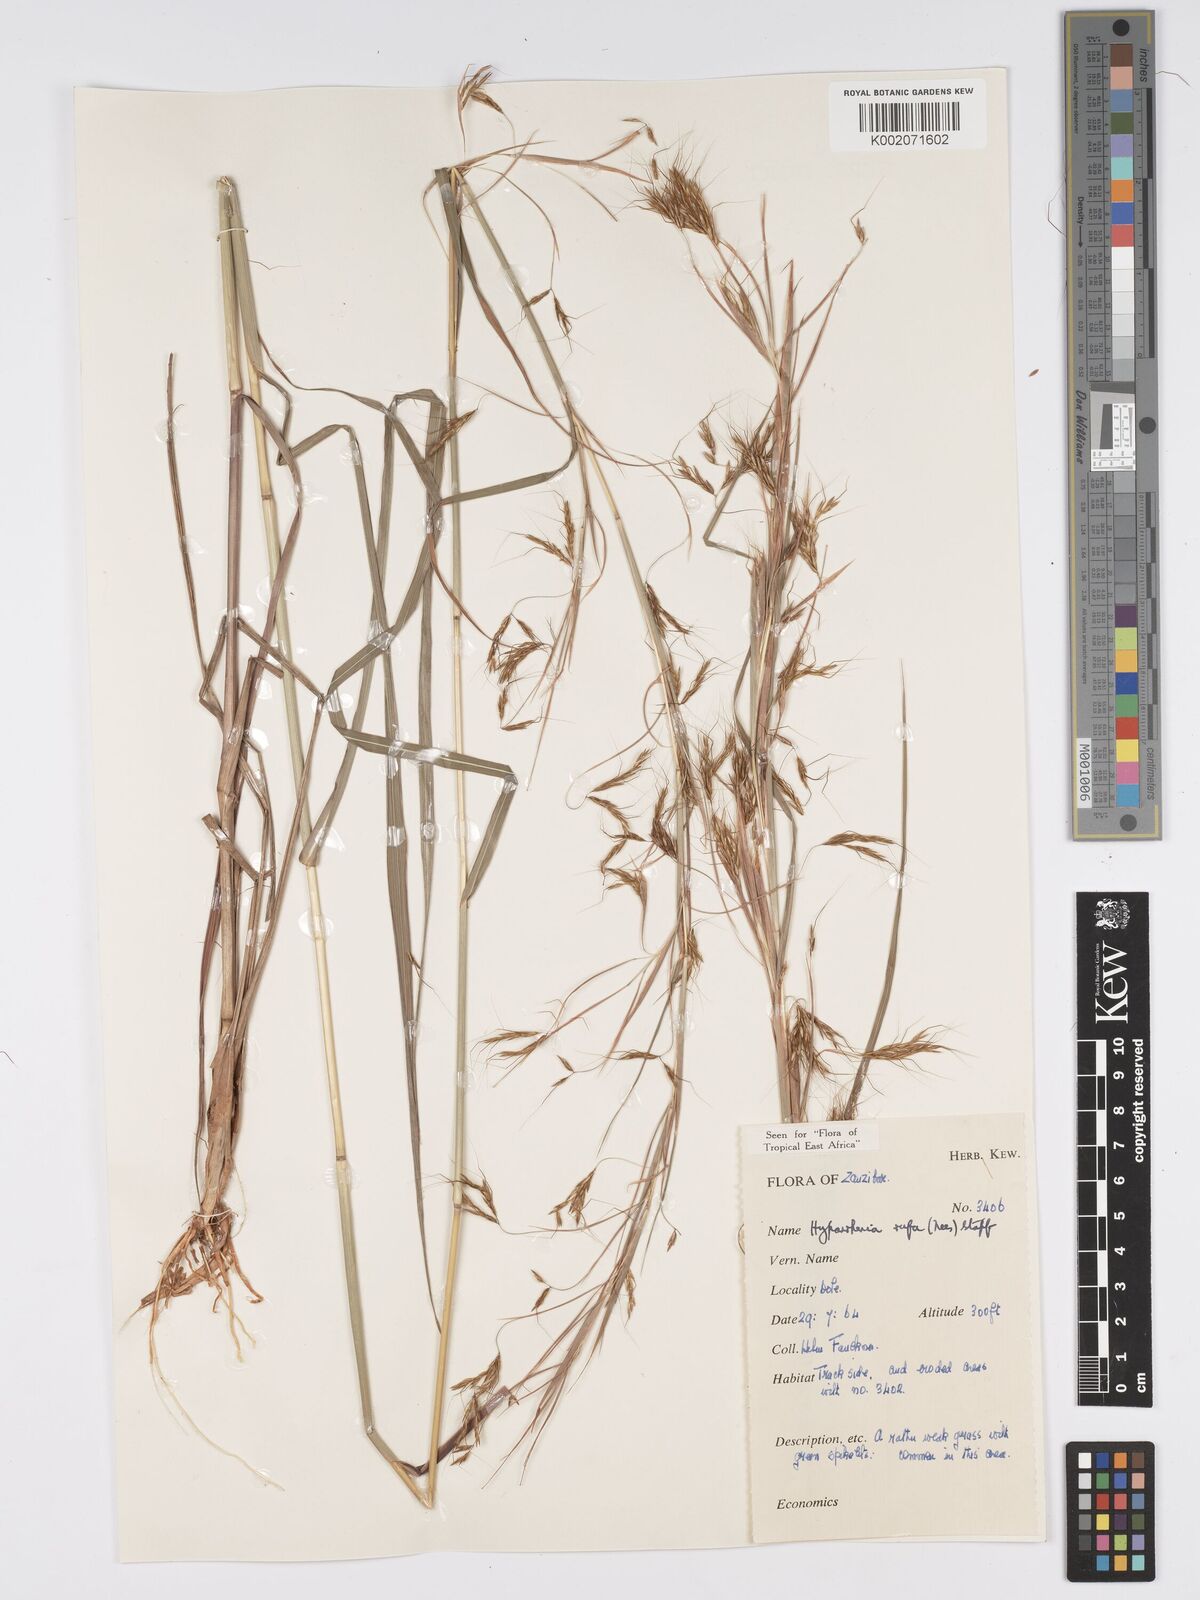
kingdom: Plantae
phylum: Tracheophyta
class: Liliopsida
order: Poales
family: Poaceae
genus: Hyparrhenia
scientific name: Hyparrhenia rufa
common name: Jaraguagrass
